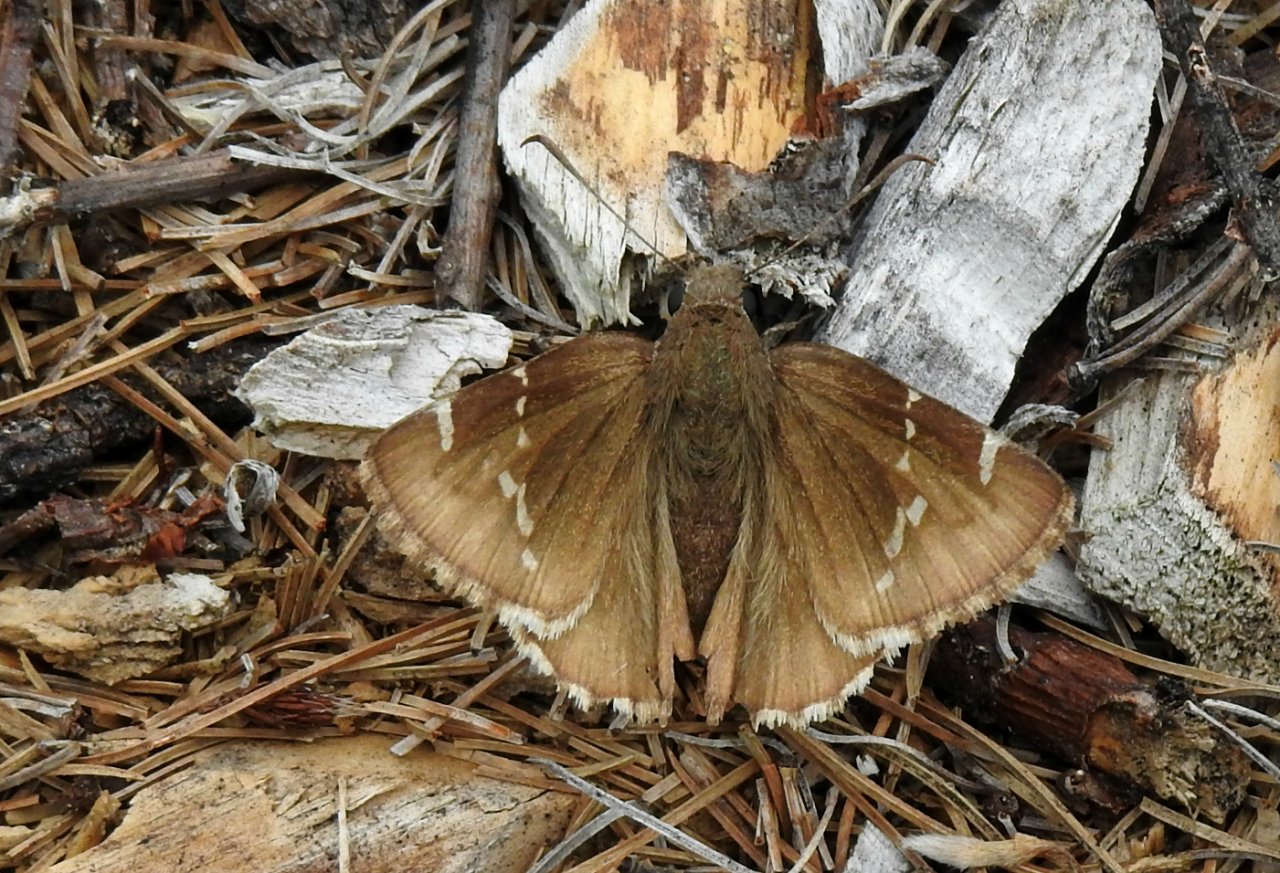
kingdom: Animalia
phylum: Arthropoda
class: Insecta
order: Lepidoptera
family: Hesperiidae
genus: Autochton
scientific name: Autochton
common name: Southern Cloudywing
